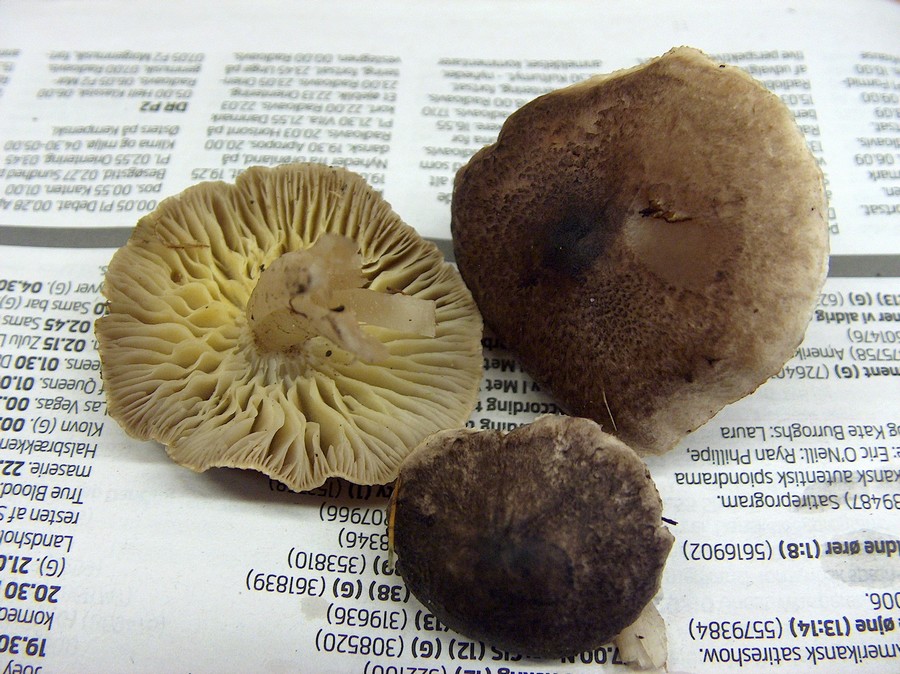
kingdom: Fungi
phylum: Basidiomycota
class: Agaricomycetes
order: Agaricales
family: Lyophyllaceae
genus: Lyophyllum
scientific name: Lyophyllum decastes
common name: Clustered domecap
